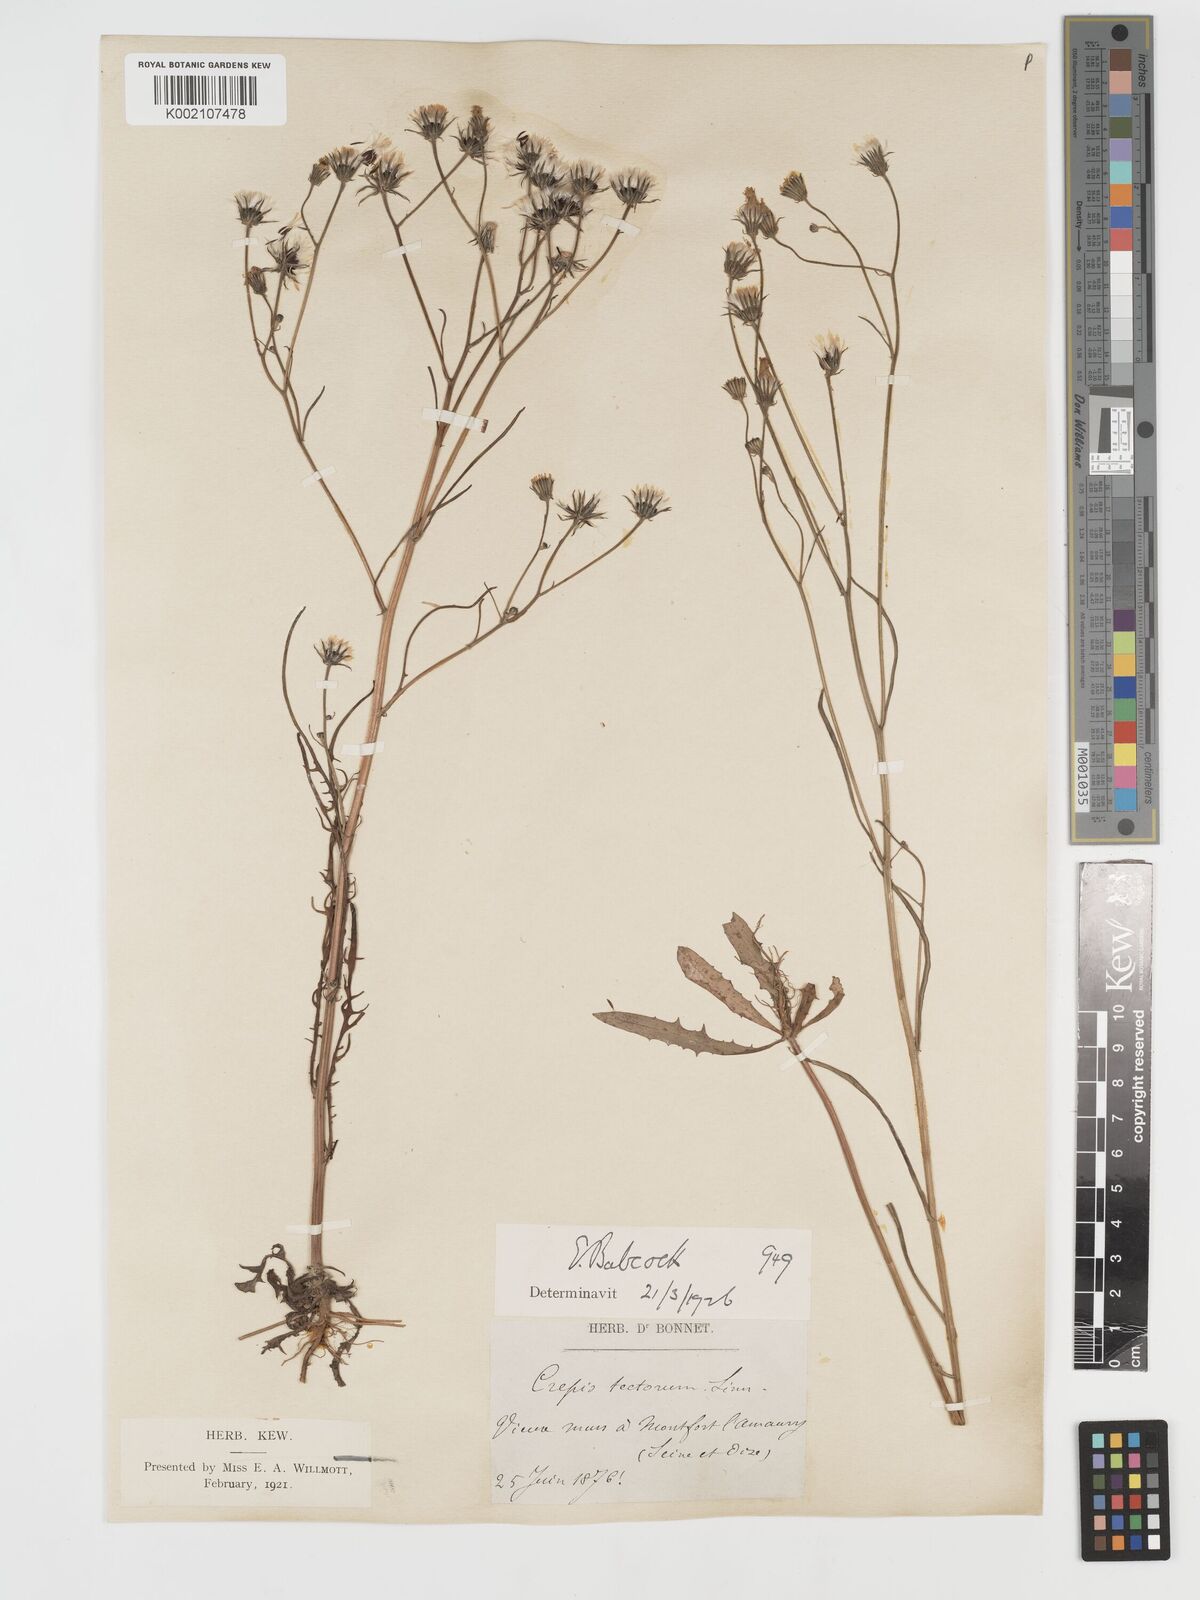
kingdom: Plantae
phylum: Tracheophyta
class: Magnoliopsida
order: Asterales
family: Asteraceae
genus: Crepis
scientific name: Crepis tectorum
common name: Narrow-leaved hawk's-beard
